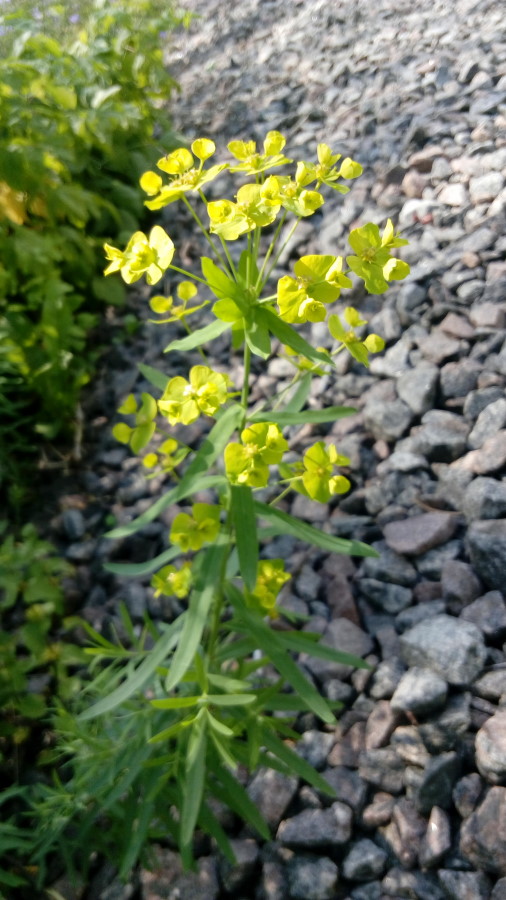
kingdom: Plantae
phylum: Tracheophyta
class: Magnoliopsida
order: Malpighiales
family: Euphorbiaceae
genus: Euphorbia
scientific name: Euphorbia virgata
